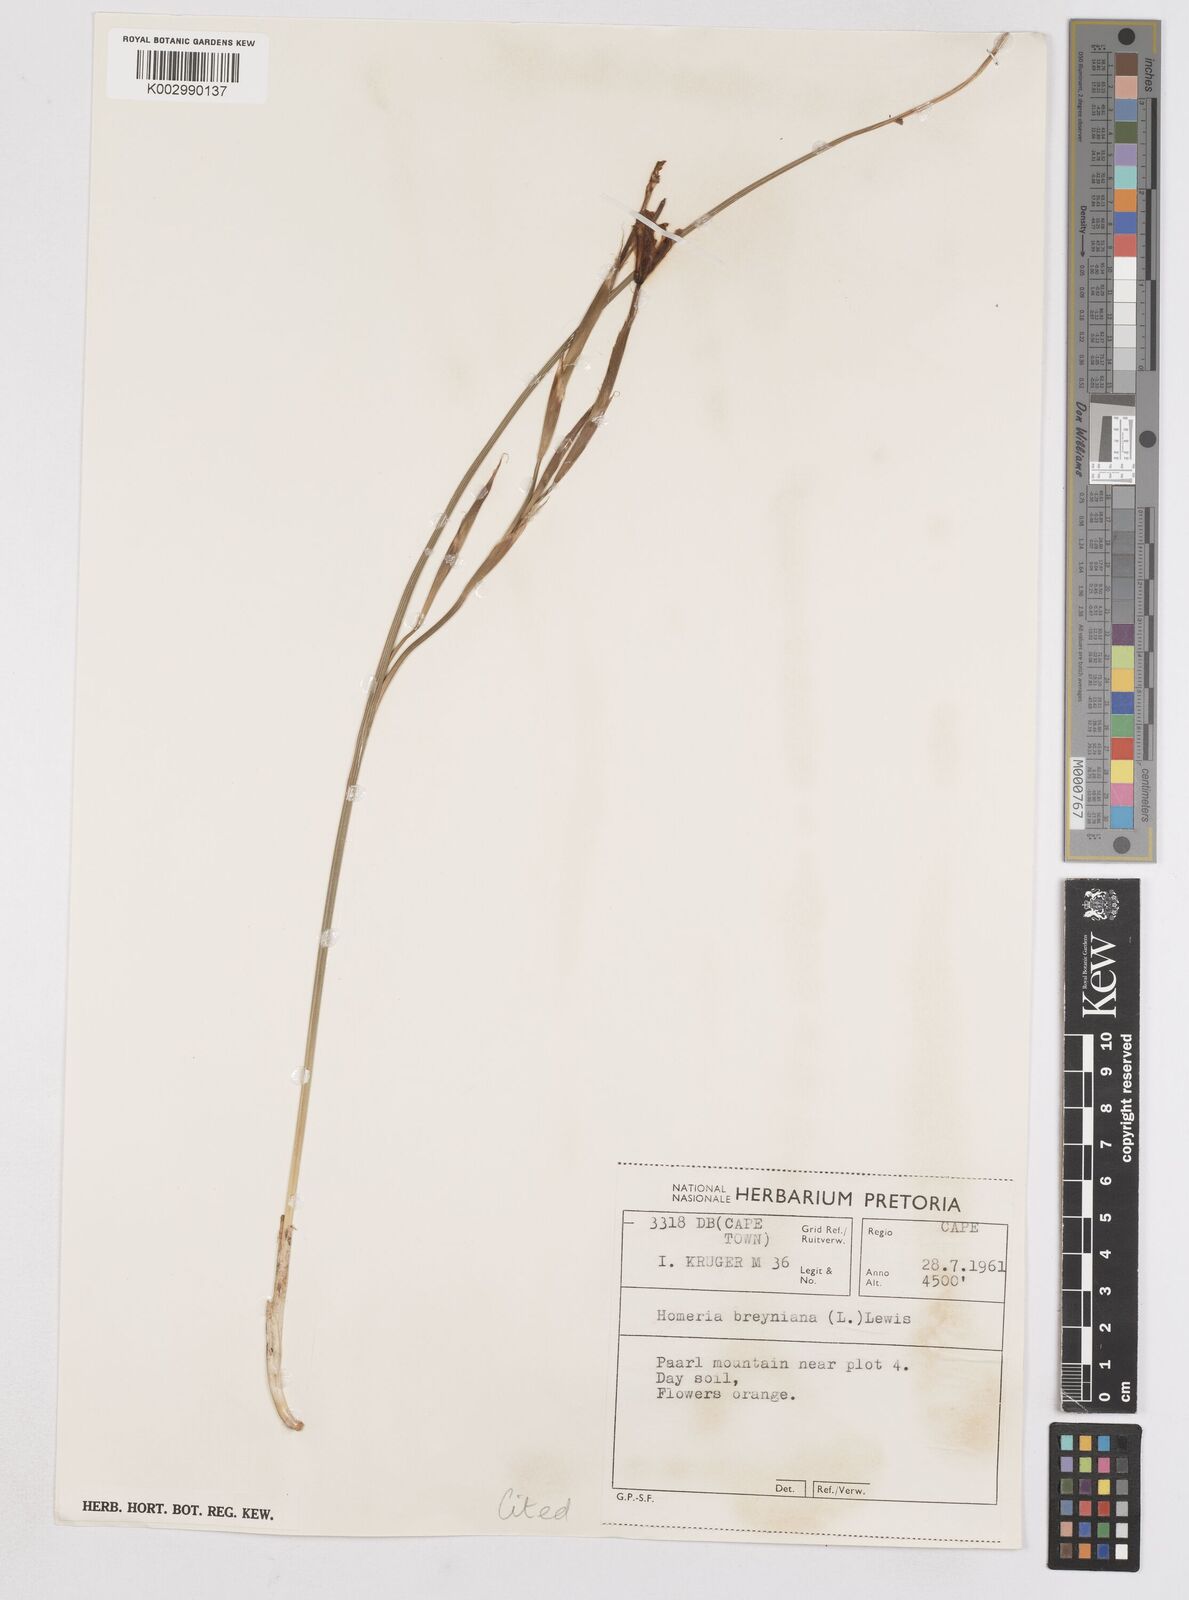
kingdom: Plantae
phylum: Tracheophyta
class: Liliopsida
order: Asparagales
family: Iridaceae
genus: Moraea
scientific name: Moraea collina
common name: Cape-tulip
